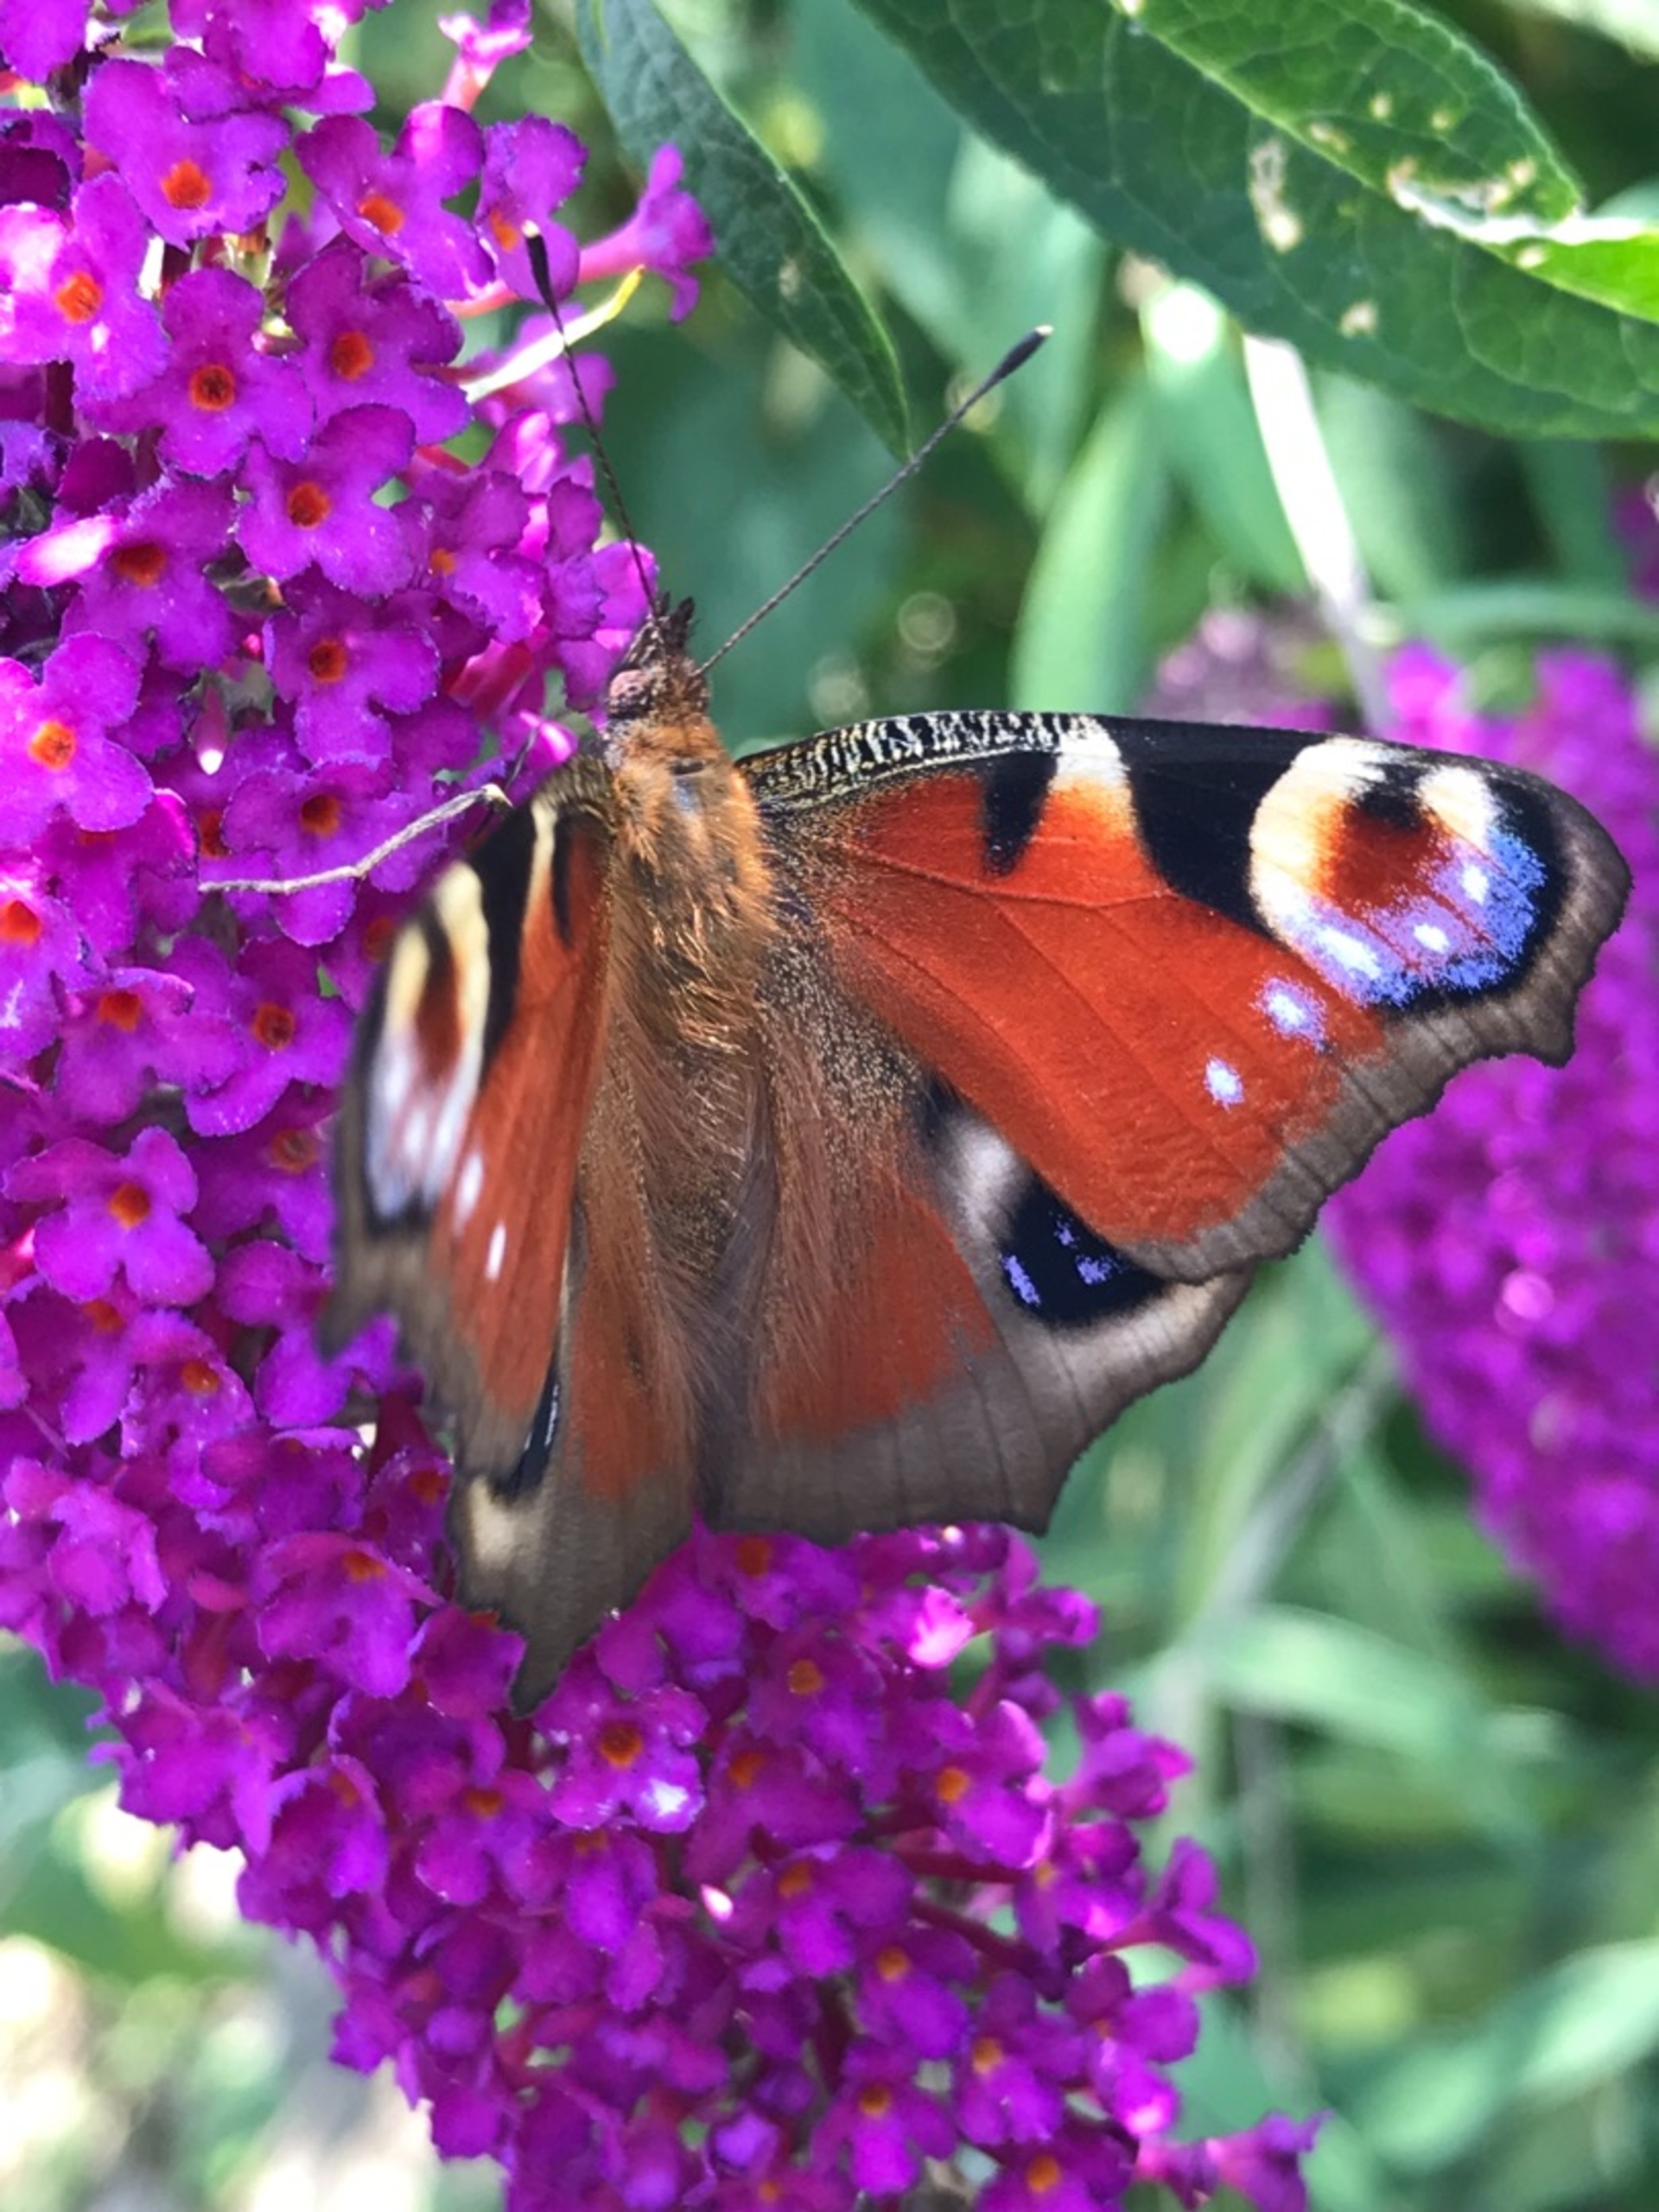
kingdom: Animalia
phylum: Arthropoda
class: Insecta
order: Lepidoptera
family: Nymphalidae
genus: Aglais
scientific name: Aglais io
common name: Dagpåfugleøje
